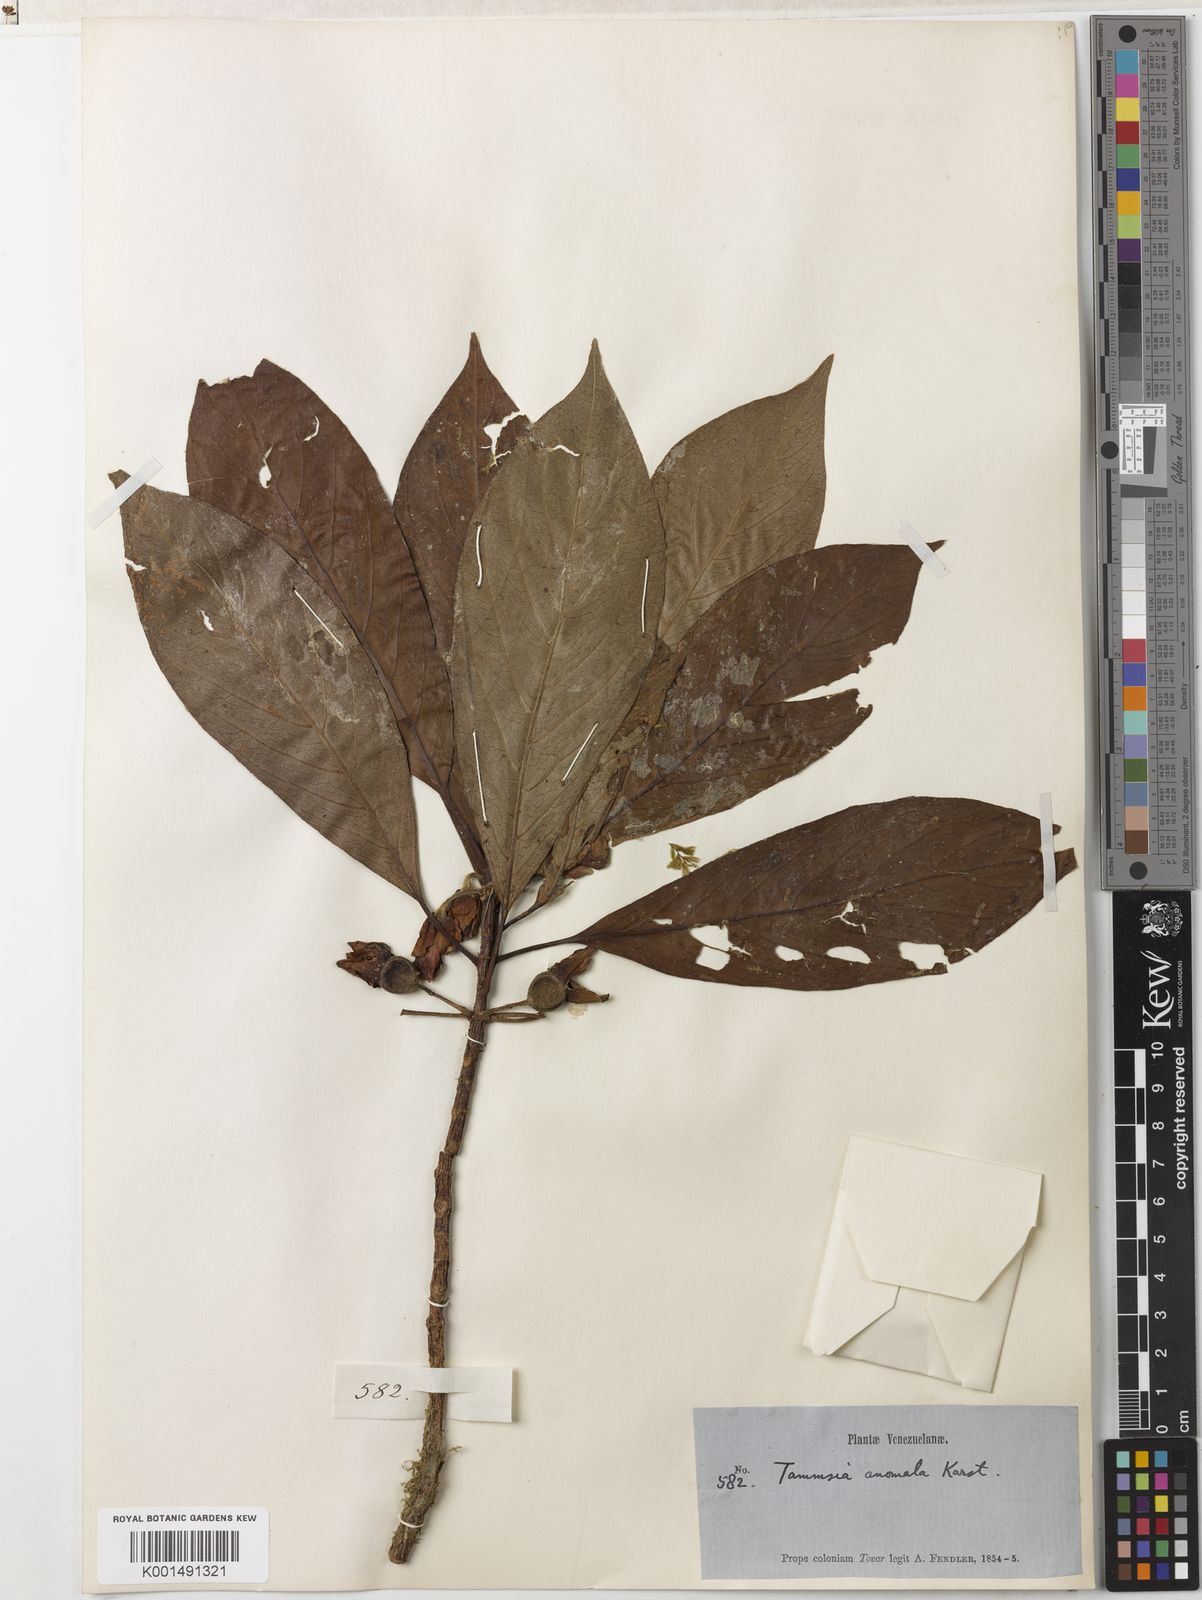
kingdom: Plantae
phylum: Tracheophyta
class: Magnoliopsida
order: Gentianales
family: Rubiaceae
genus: Tammsia
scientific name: Tammsia anomala
